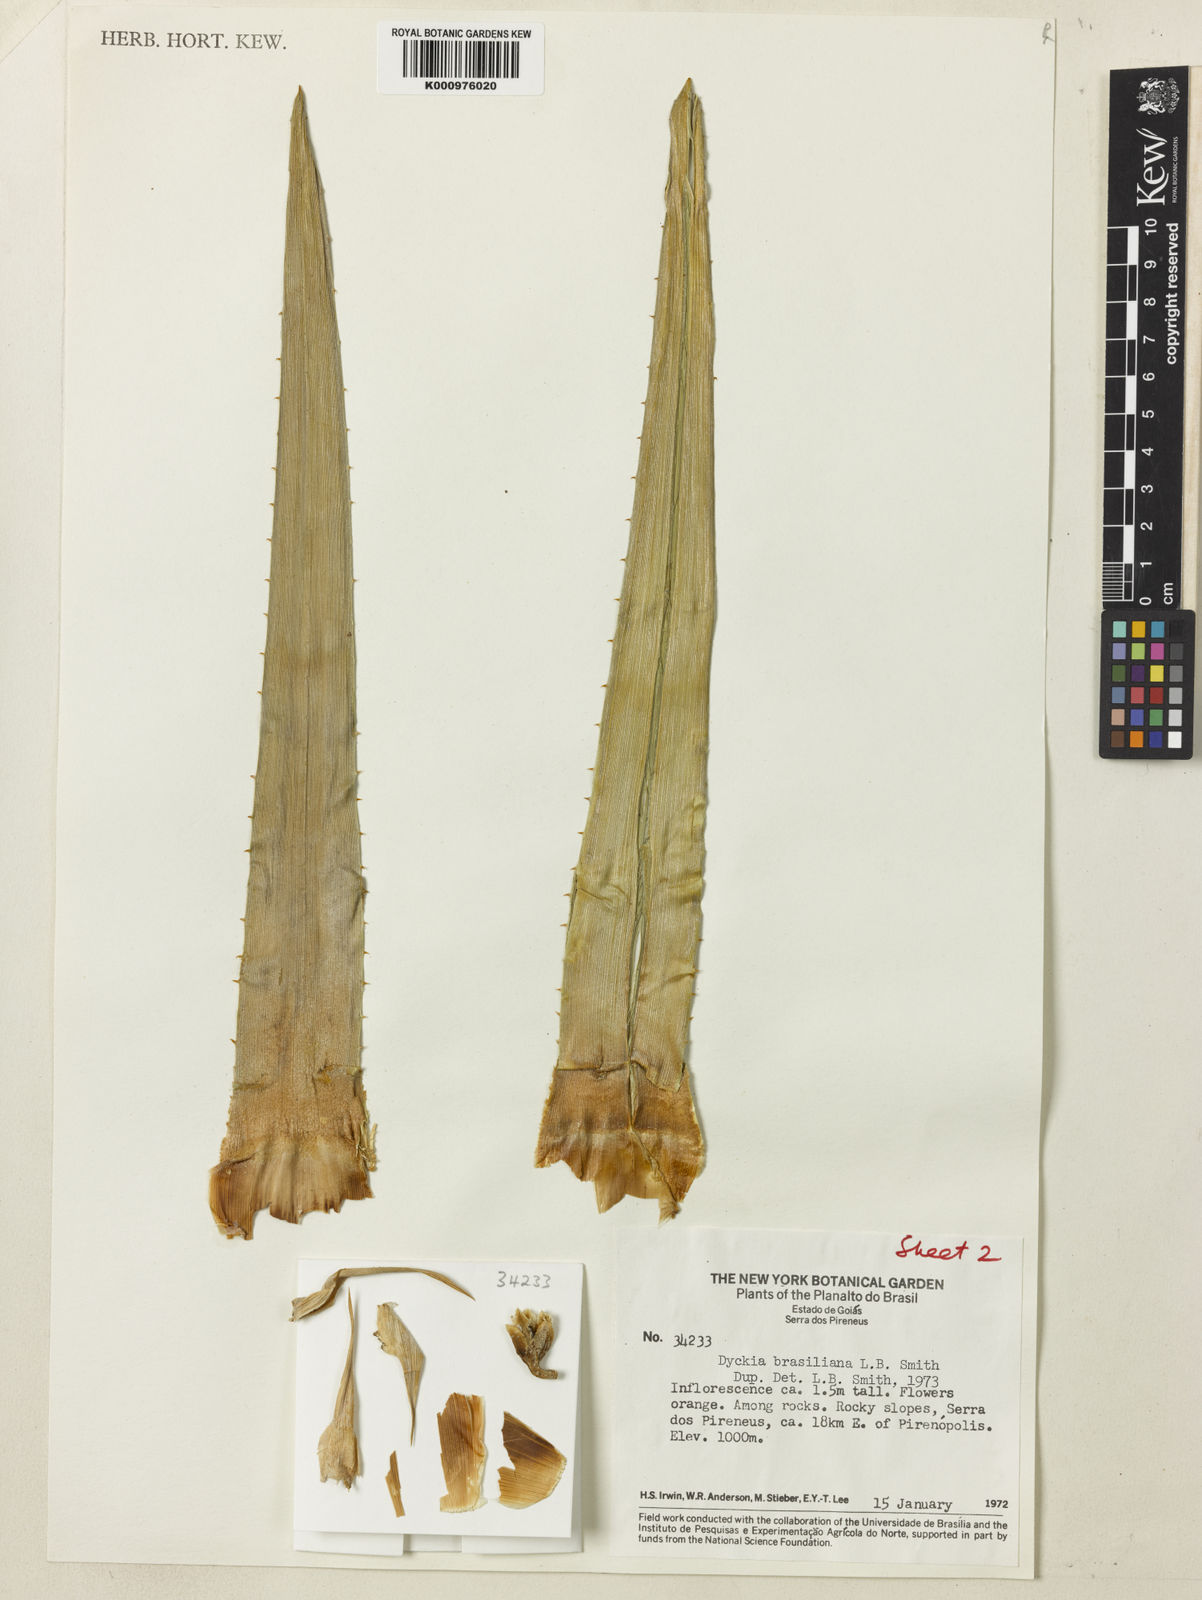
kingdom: Plantae
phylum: Tracheophyta
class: Liliopsida
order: Poales
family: Bromeliaceae
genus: Dyckia
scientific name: Dyckia brasiliana
